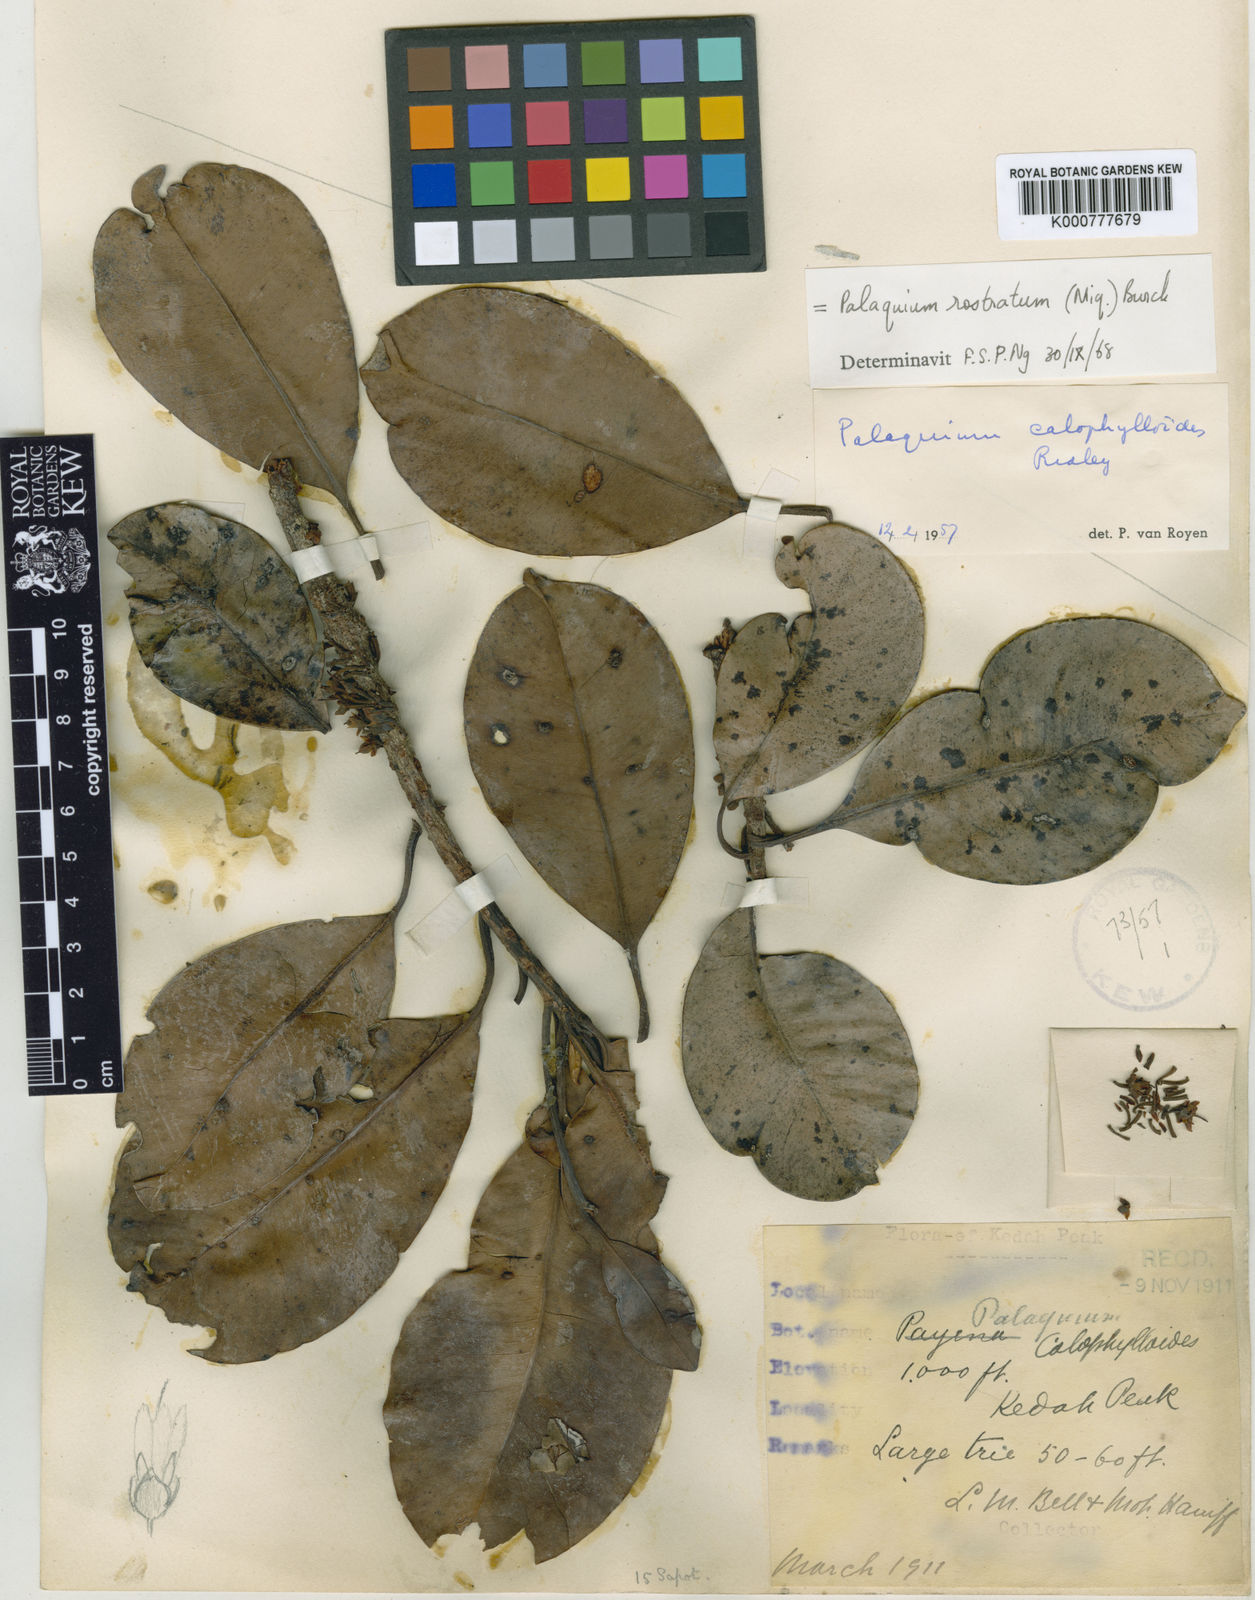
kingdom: Plantae
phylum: Tracheophyta
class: Magnoliopsida
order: Ericales
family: Sapotaceae
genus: Palaquium
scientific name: Palaquium rostratum
